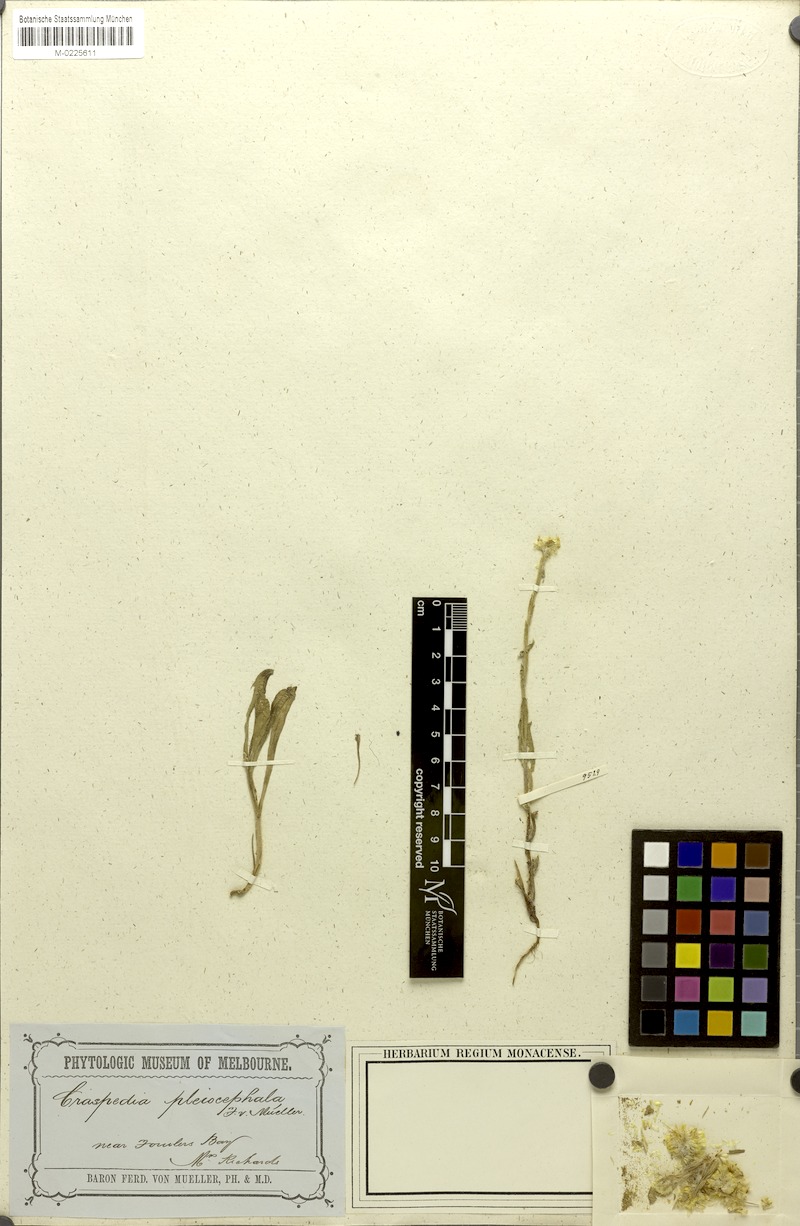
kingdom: Plantae
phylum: Tracheophyta
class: Magnoliopsida
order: Asterales
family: Asteraceae
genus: Pycnosorus
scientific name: Pycnosorus pleiocephalus
